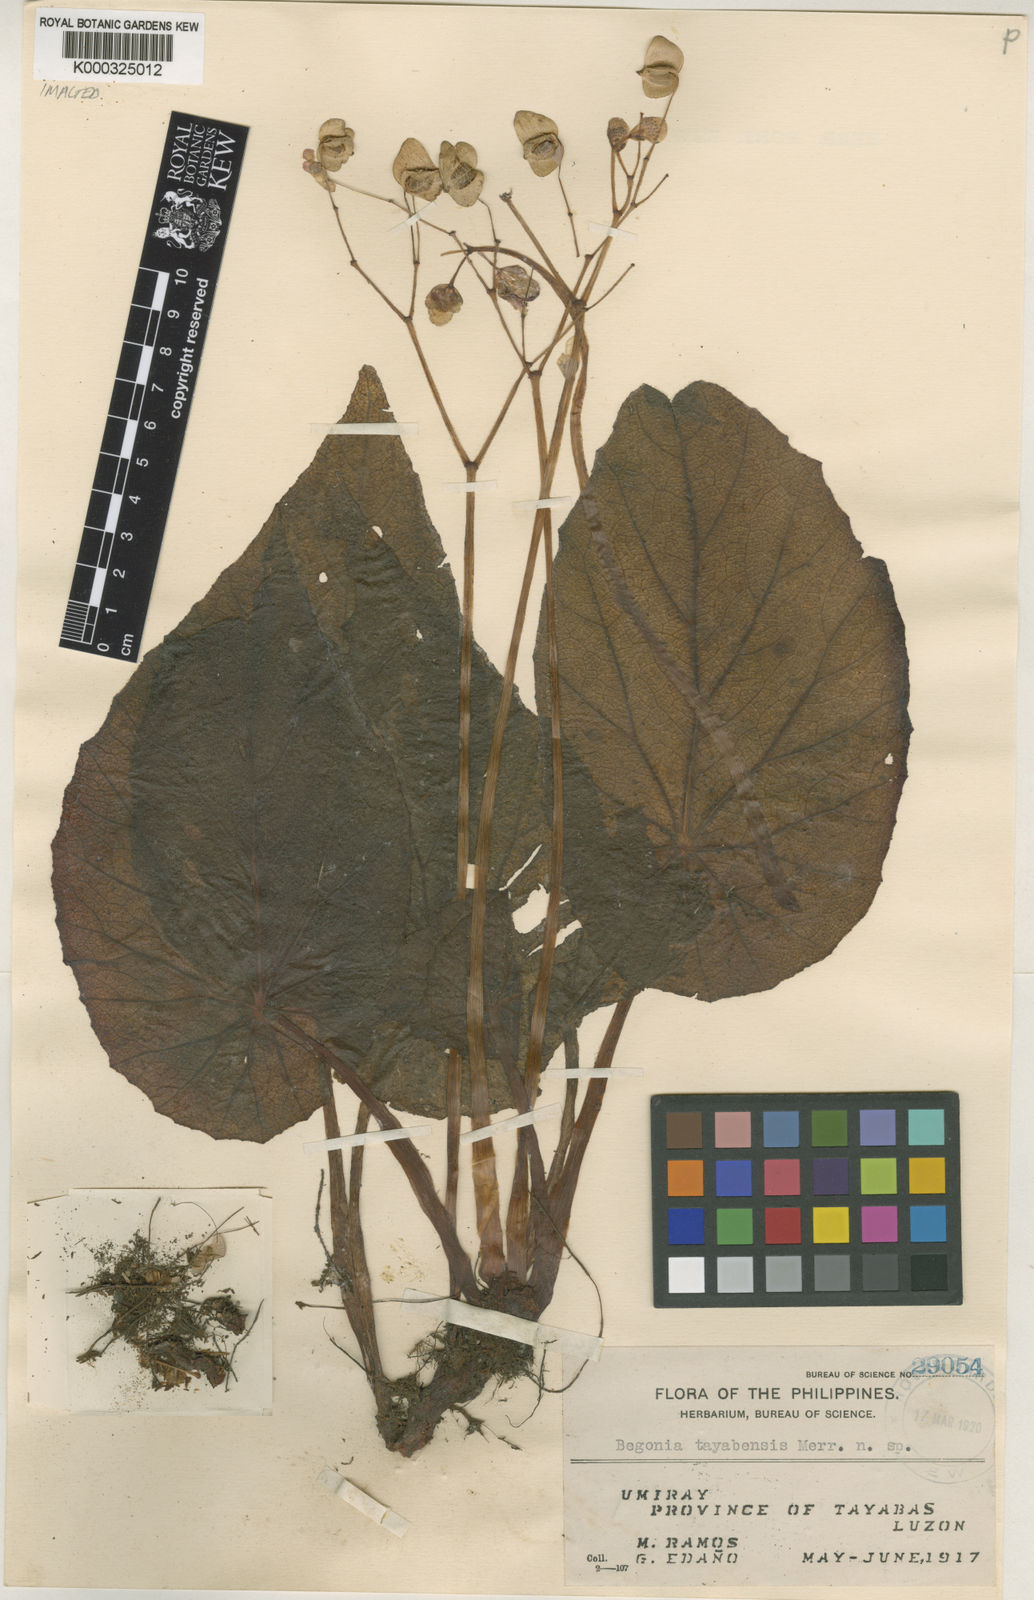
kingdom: Plantae
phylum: Tracheophyta
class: Magnoliopsida
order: Cucurbitales
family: Begoniaceae
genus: Begonia
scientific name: Begonia tayabensis
